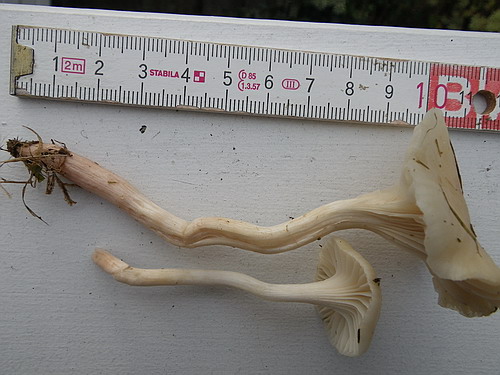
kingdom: Fungi
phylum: Basidiomycota
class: Agaricomycetes
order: Agaricales
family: Hygrophoraceae
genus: Cuphophyllus
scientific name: Cuphophyllus virgineus
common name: snehvid vokshat
